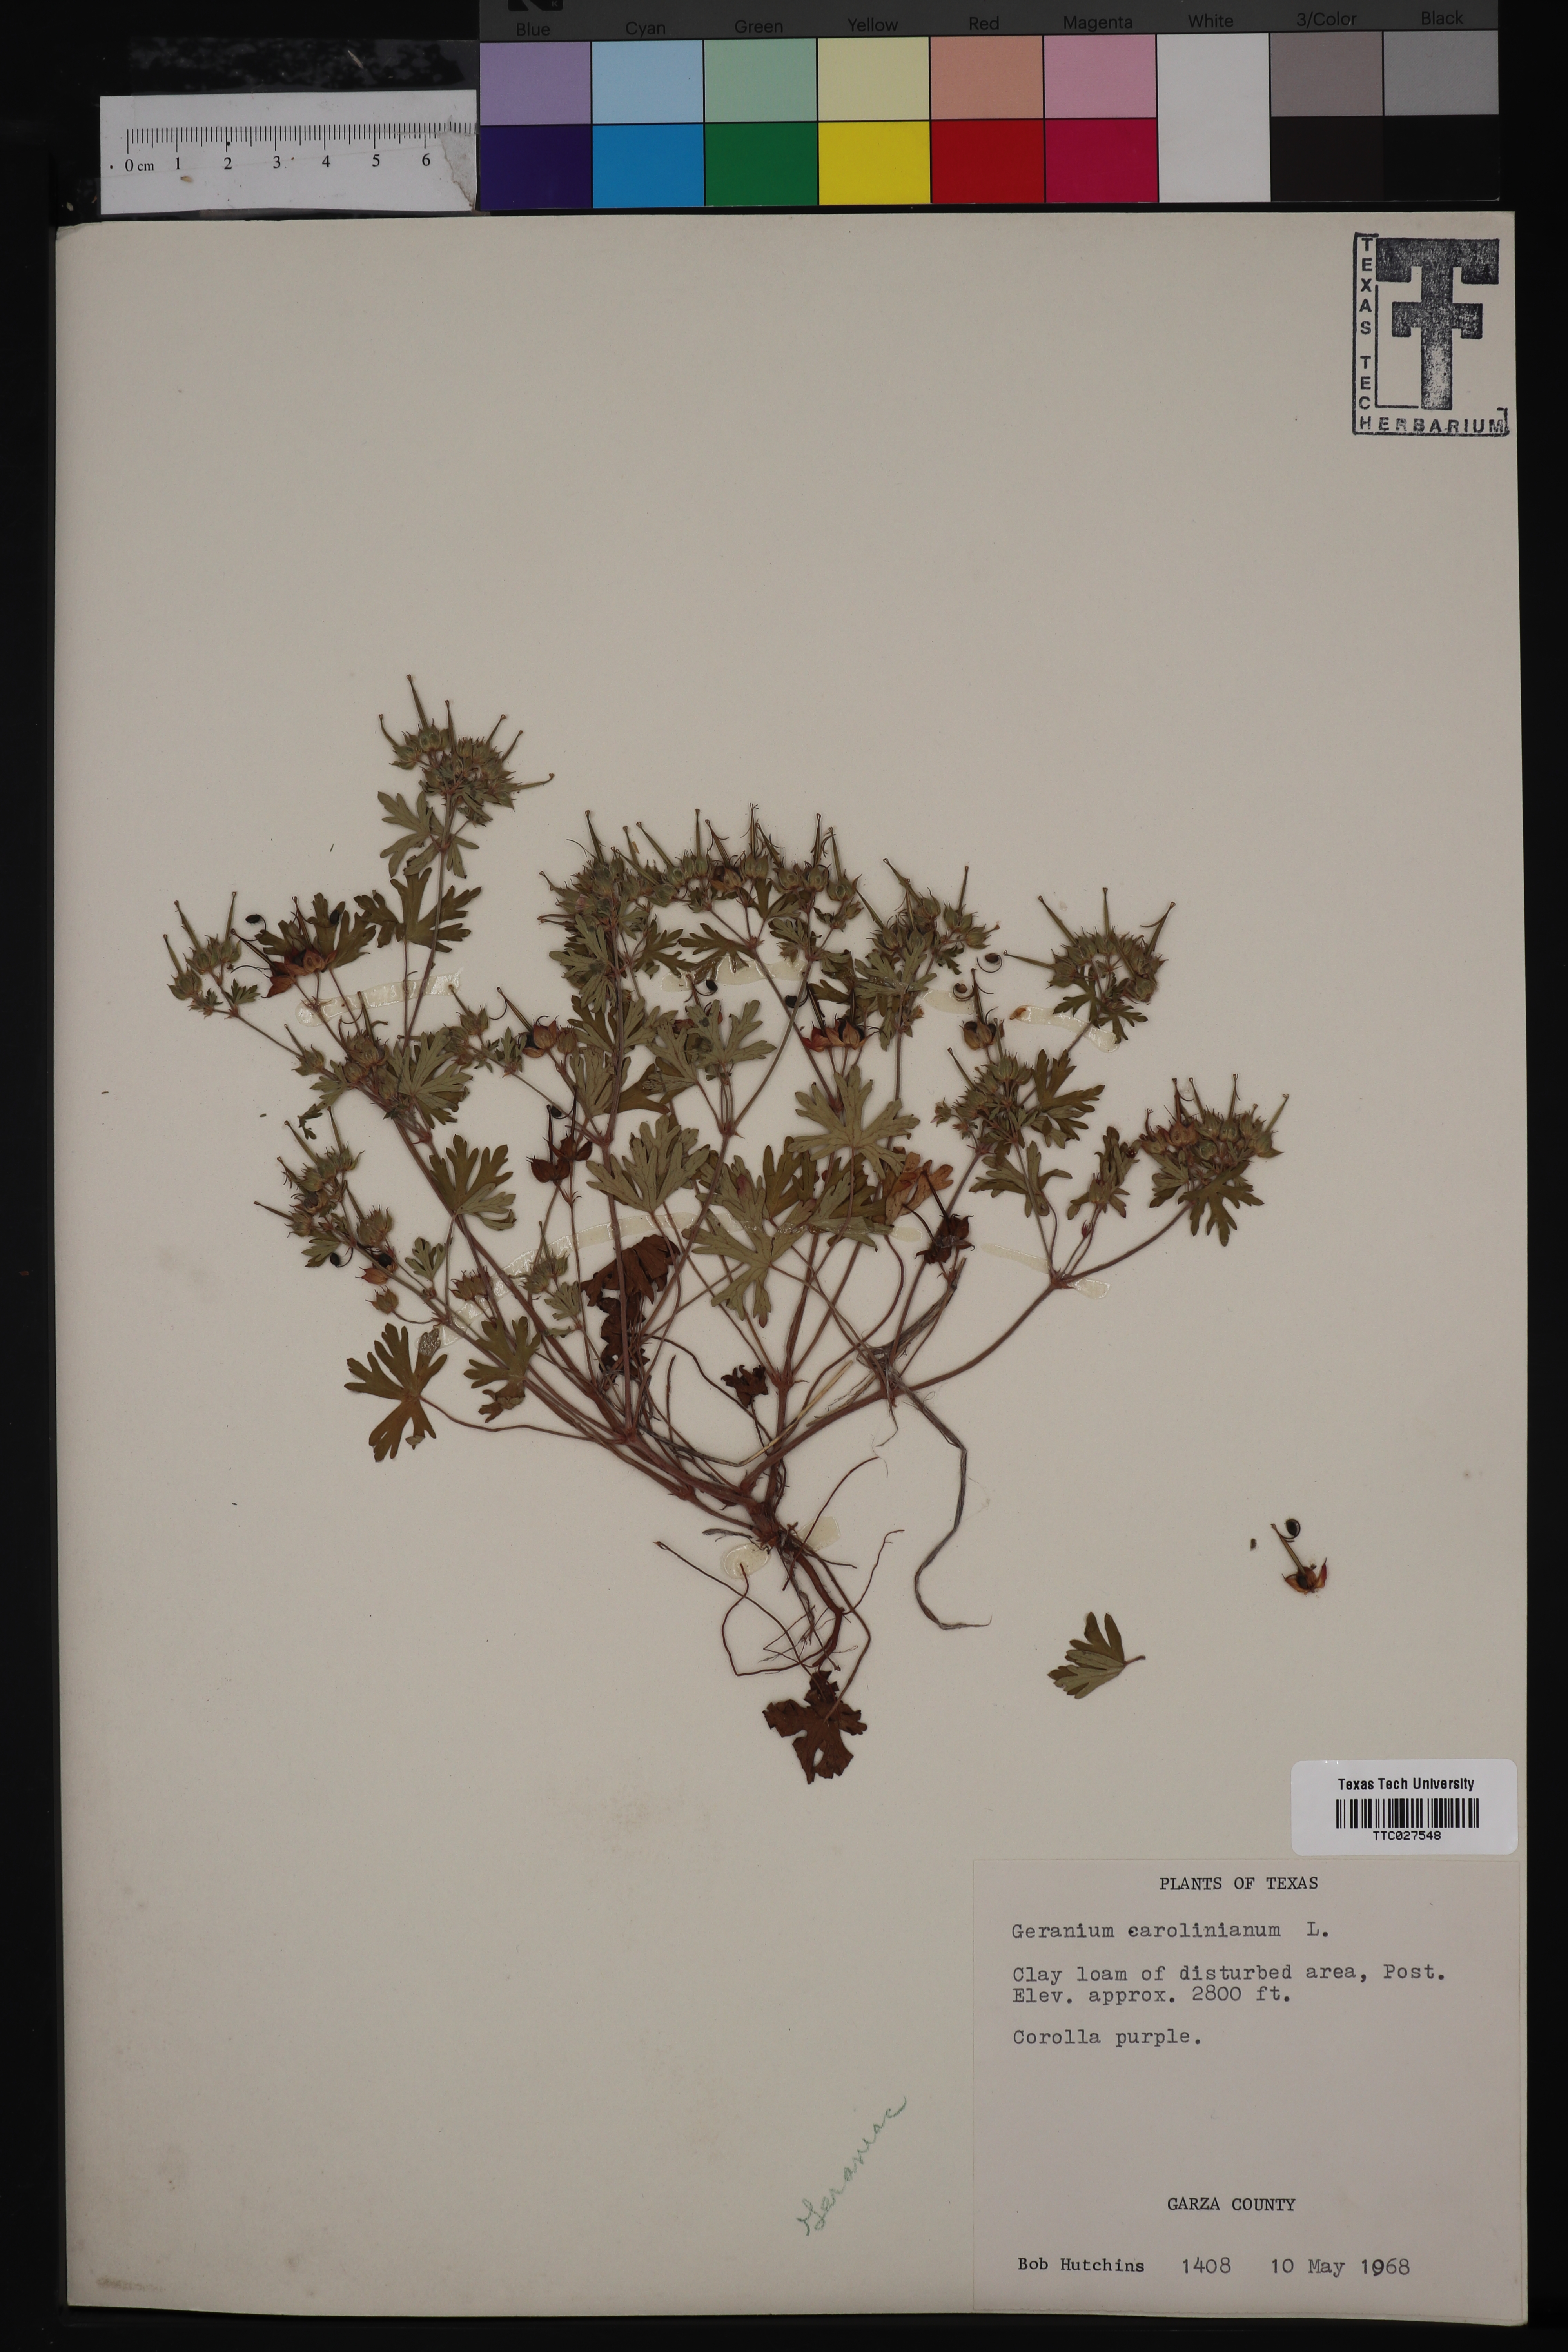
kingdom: Plantae
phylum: Tracheophyta
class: Magnoliopsida
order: Geraniales
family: Geraniaceae
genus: Geranium
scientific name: Geranium carolinianum
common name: Carolina crane's-bill
